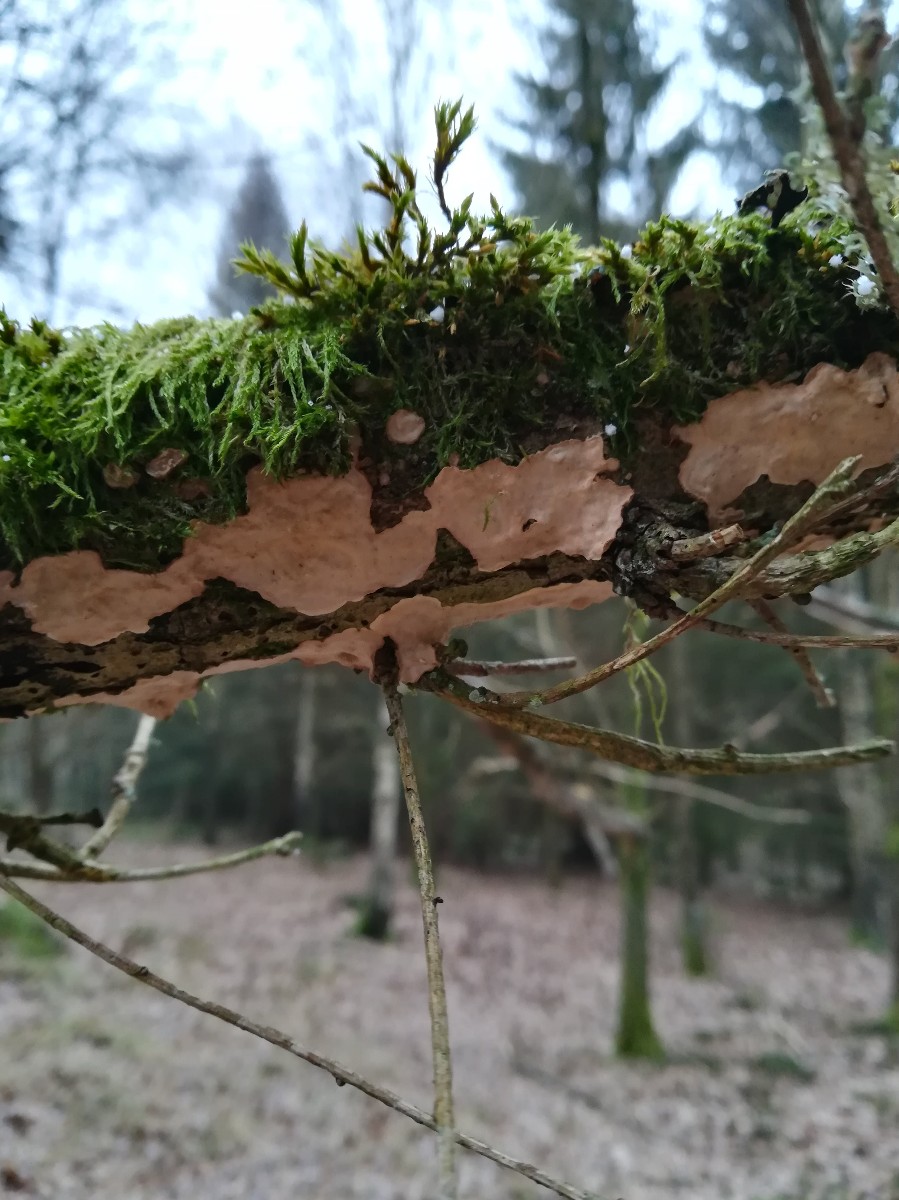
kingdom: Fungi
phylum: Basidiomycota
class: Agaricomycetes
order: Russulales
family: Stereaceae
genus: Stereum
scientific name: Stereum rugosum
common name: rynket lædersvamp
